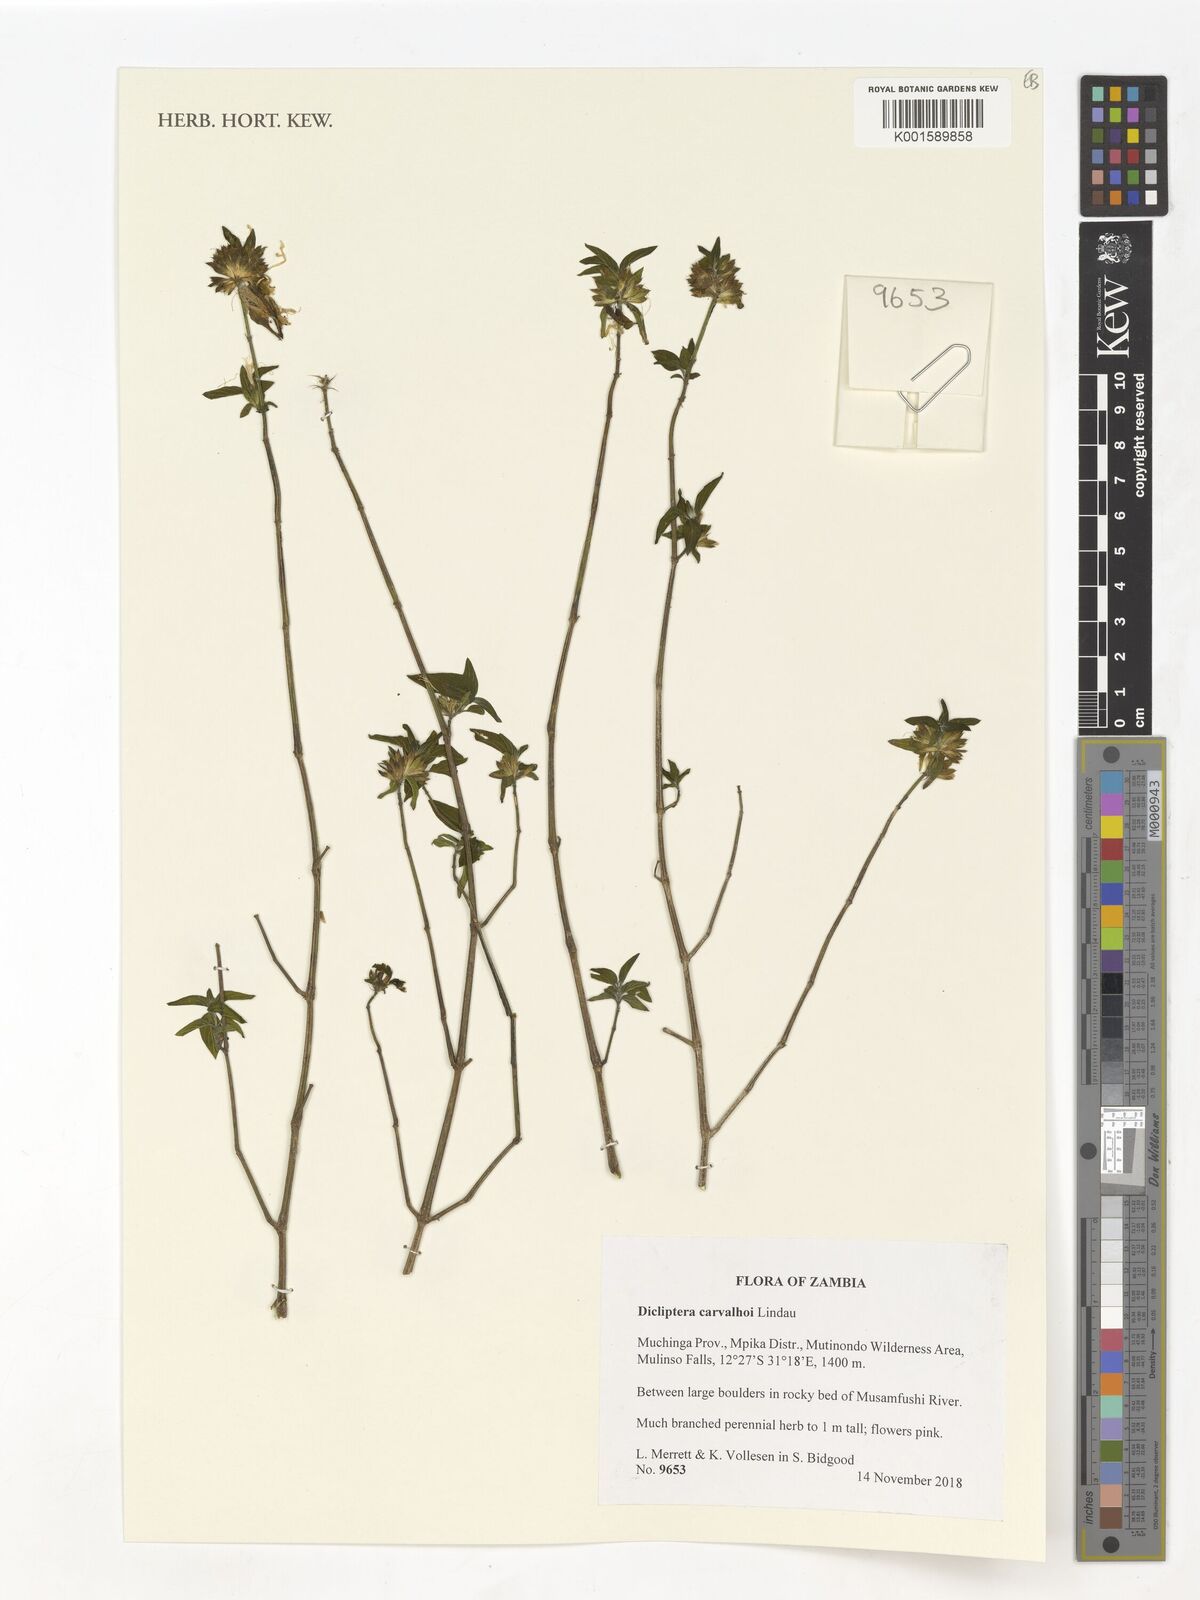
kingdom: Plantae
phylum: Tracheophyta
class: Magnoliopsida
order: Lamiales
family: Acanthaceae
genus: Dicliptera
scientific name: Dicliptera carvalhoi
